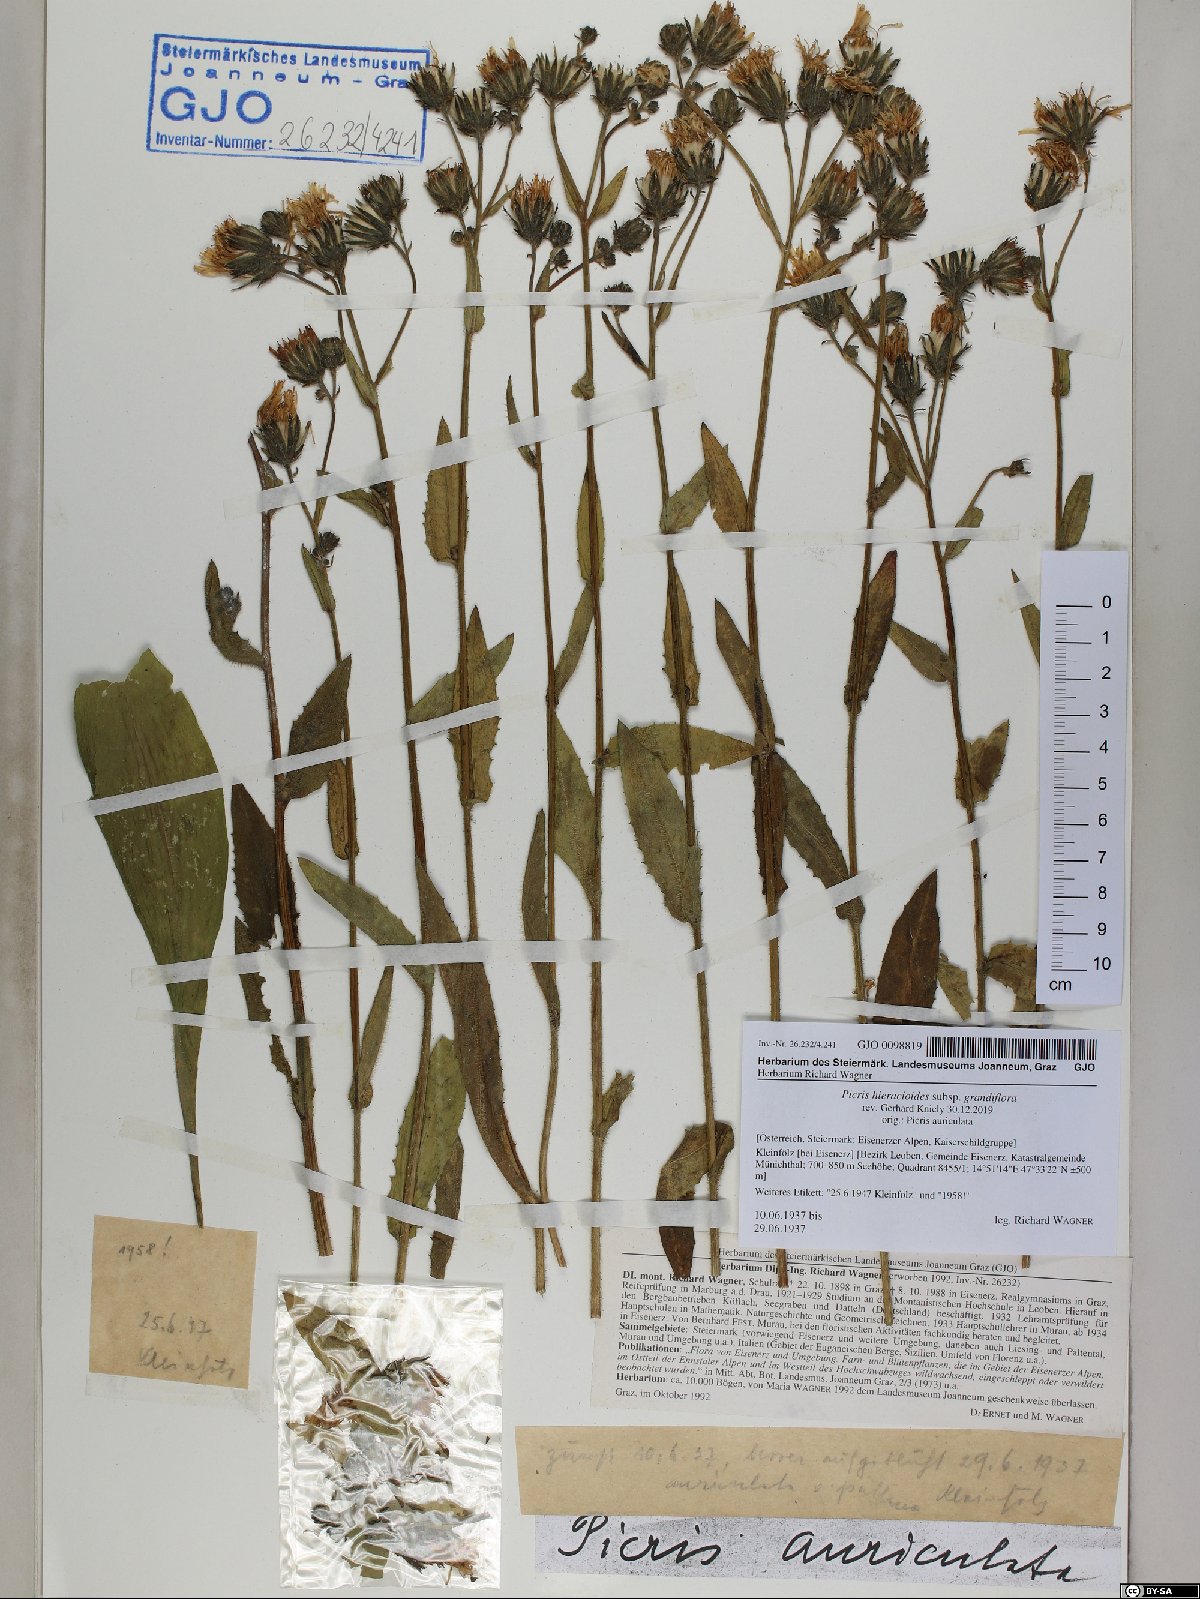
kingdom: Plantae
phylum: Tracheophyta
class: Magnoliopsida
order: Asterales
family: Asteraceae
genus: Picris
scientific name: Picris hieracioides
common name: Hawkweed oxtongue
